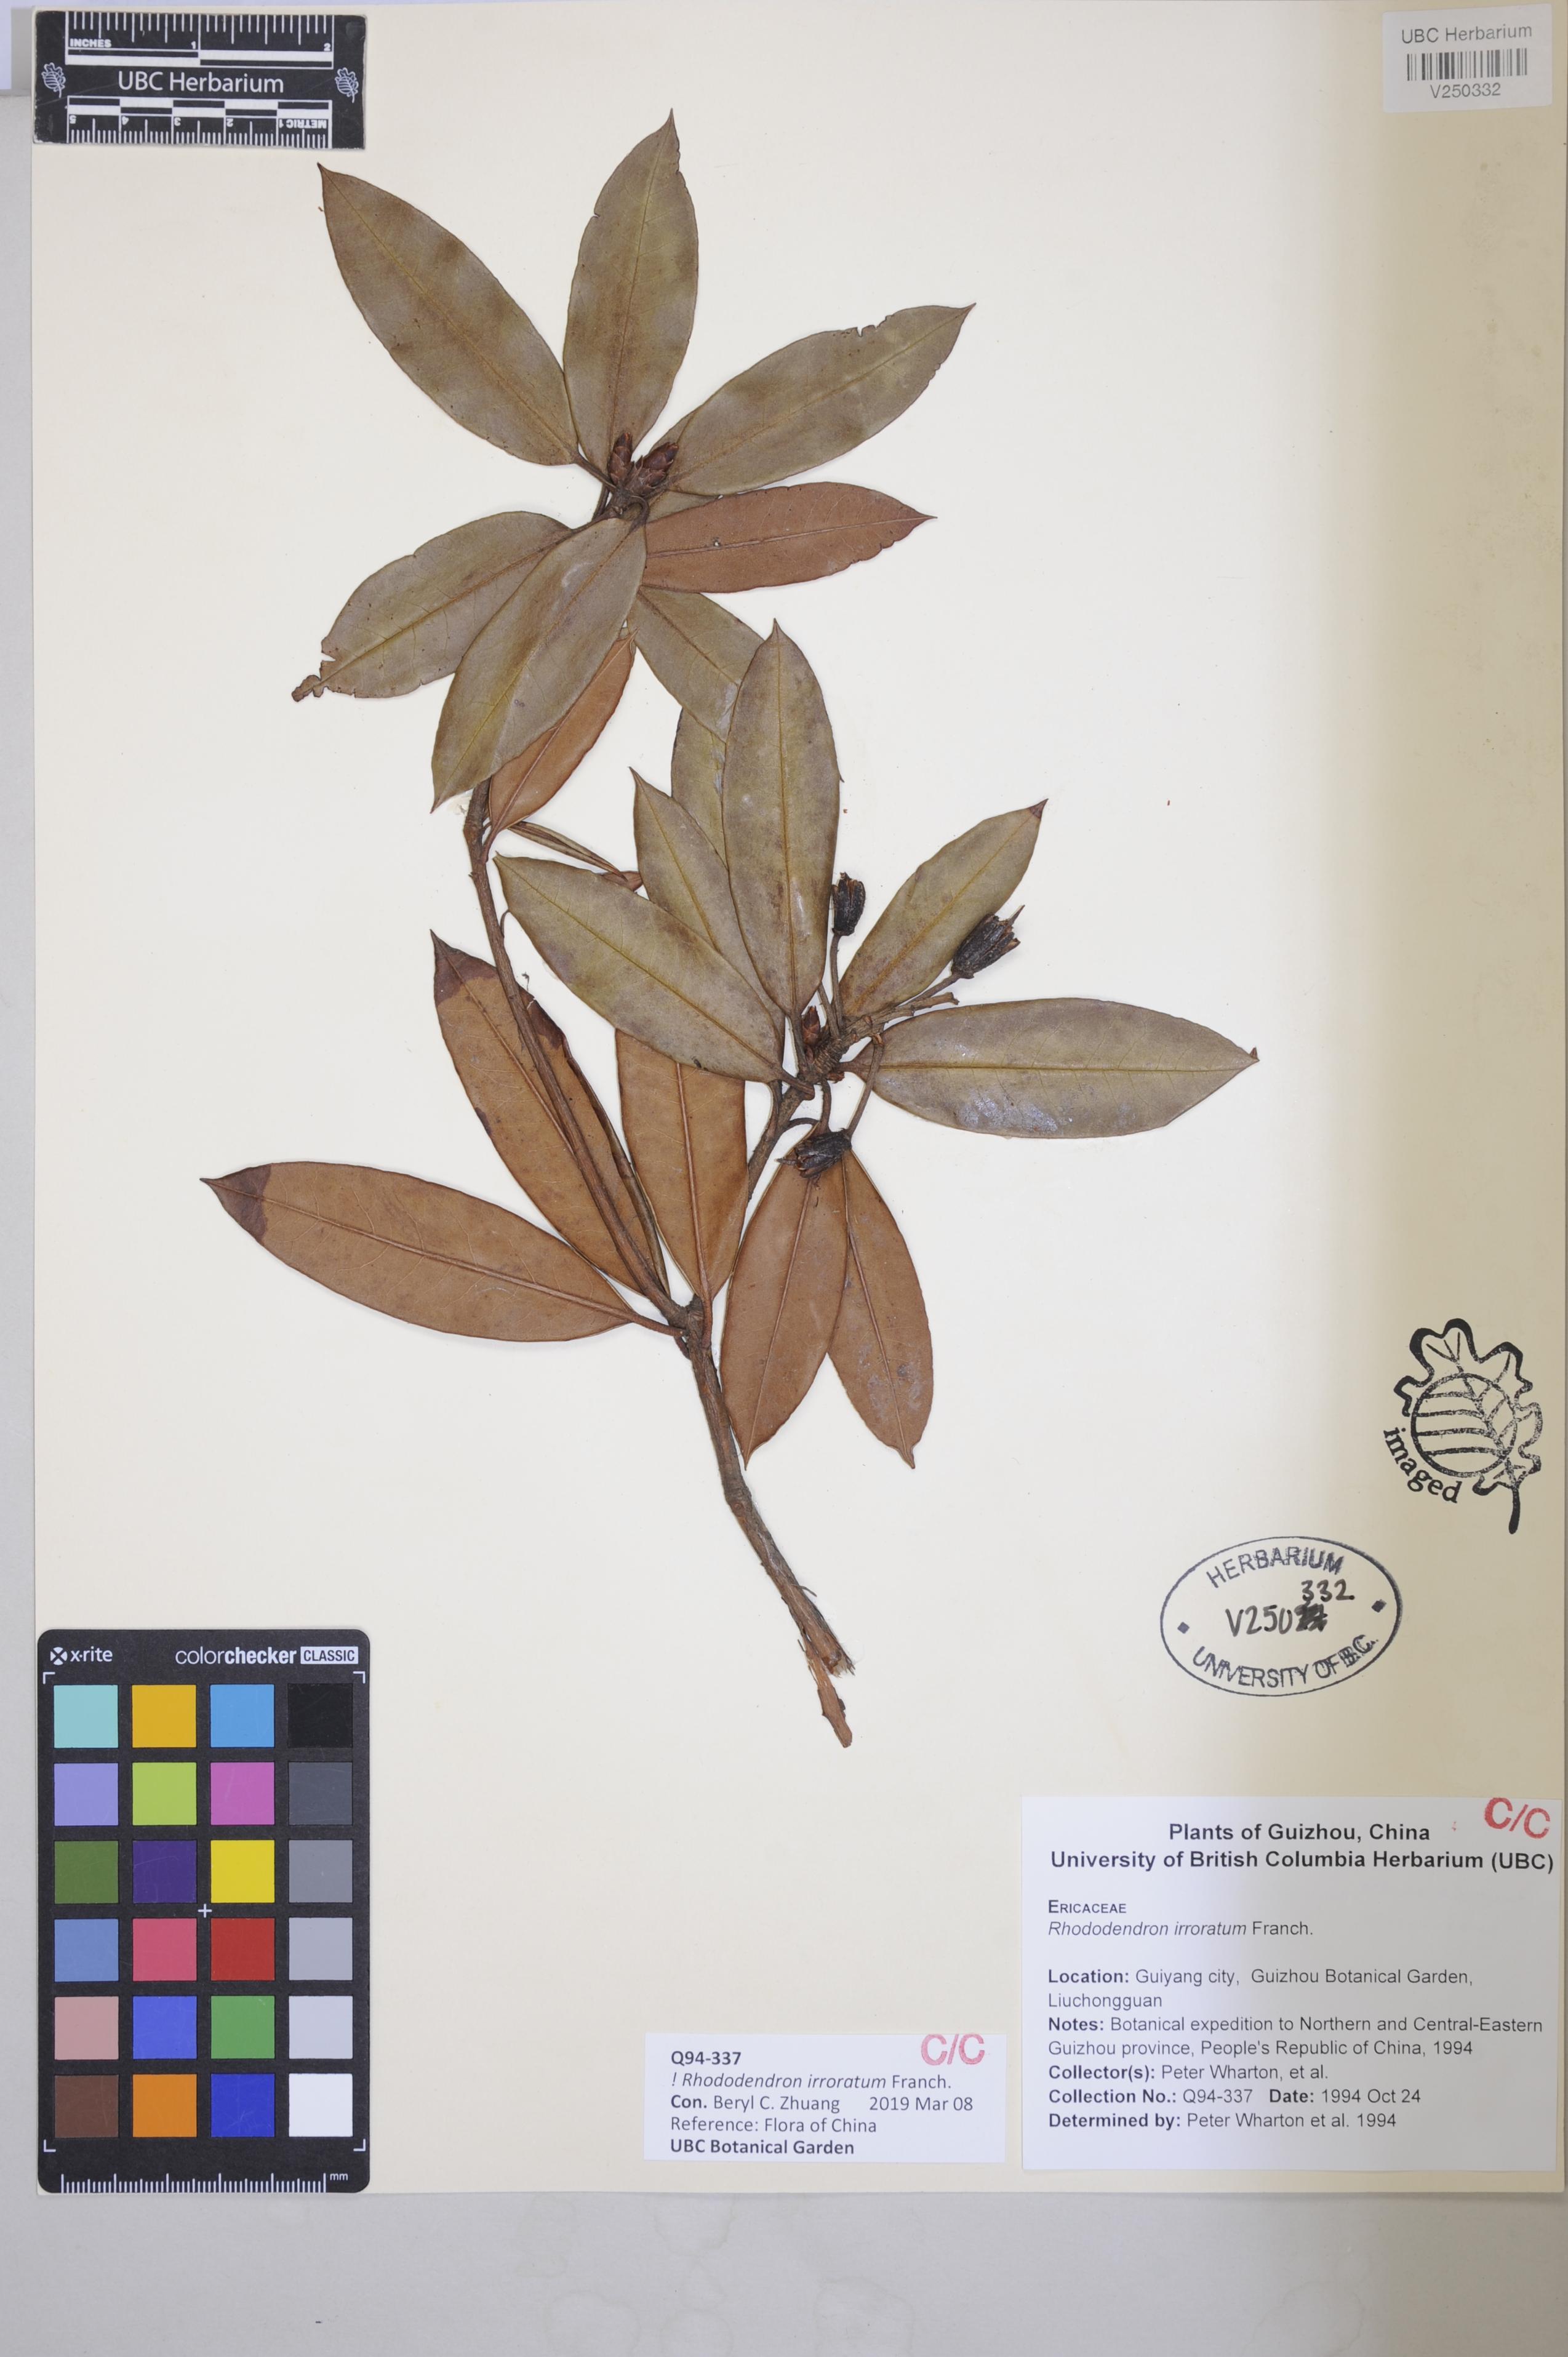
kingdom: Plantae
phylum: Tracheophyta
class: Magnoliopsida
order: Ericales
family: Ericaceae
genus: Rhododendron
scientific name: Rhododendron irroratum
